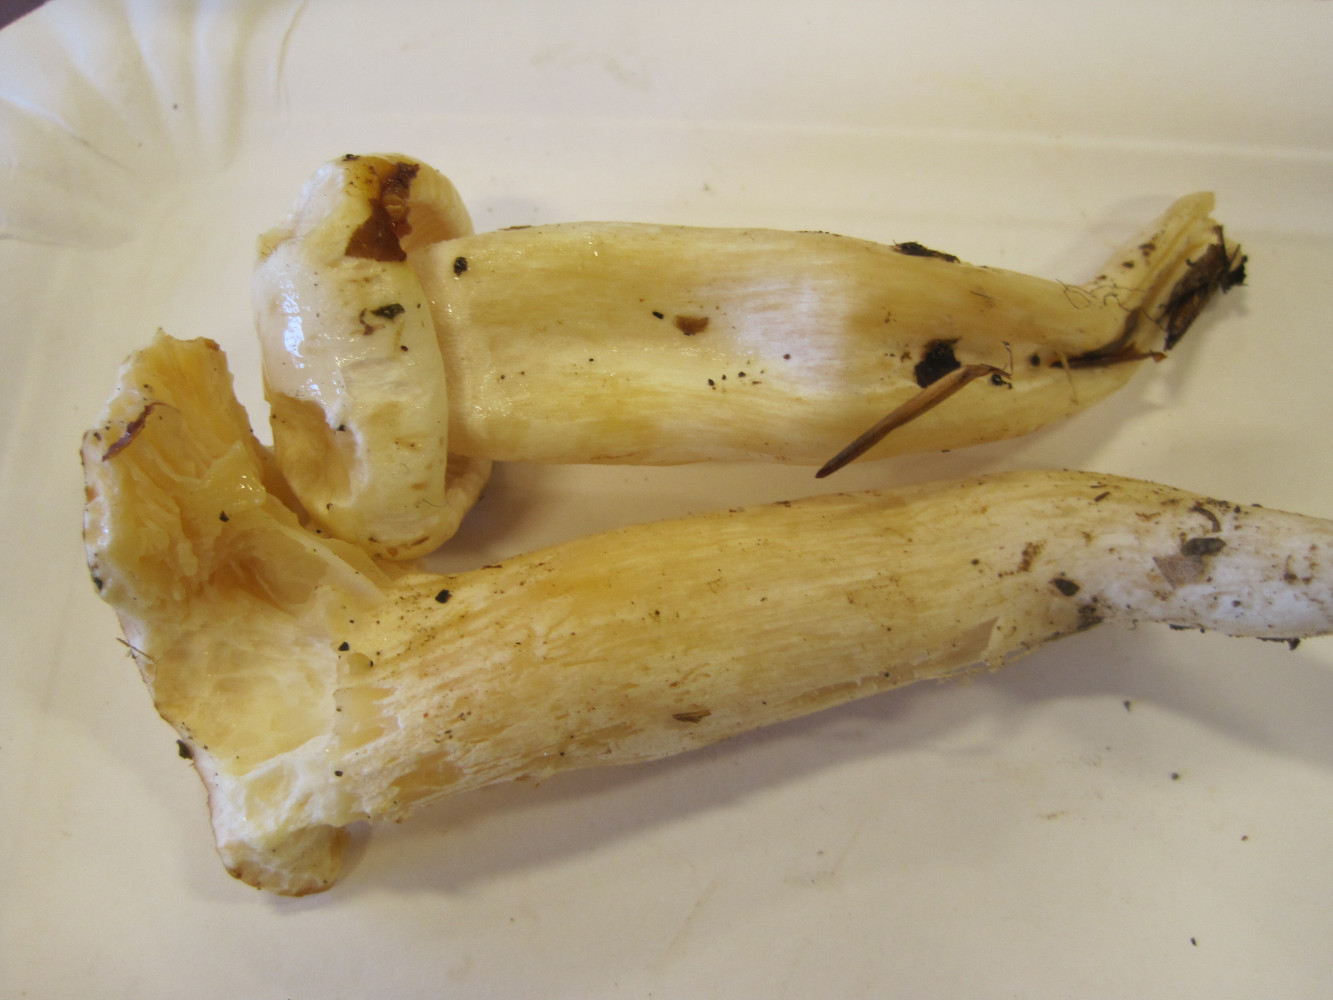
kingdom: Fungi
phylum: Basidiomycota
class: Agaricomycetes
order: Agaricales
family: Hygrophoraceae
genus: Hygrophorus
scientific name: Hygrophorus eburneus
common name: elfenbens-sneglehat
